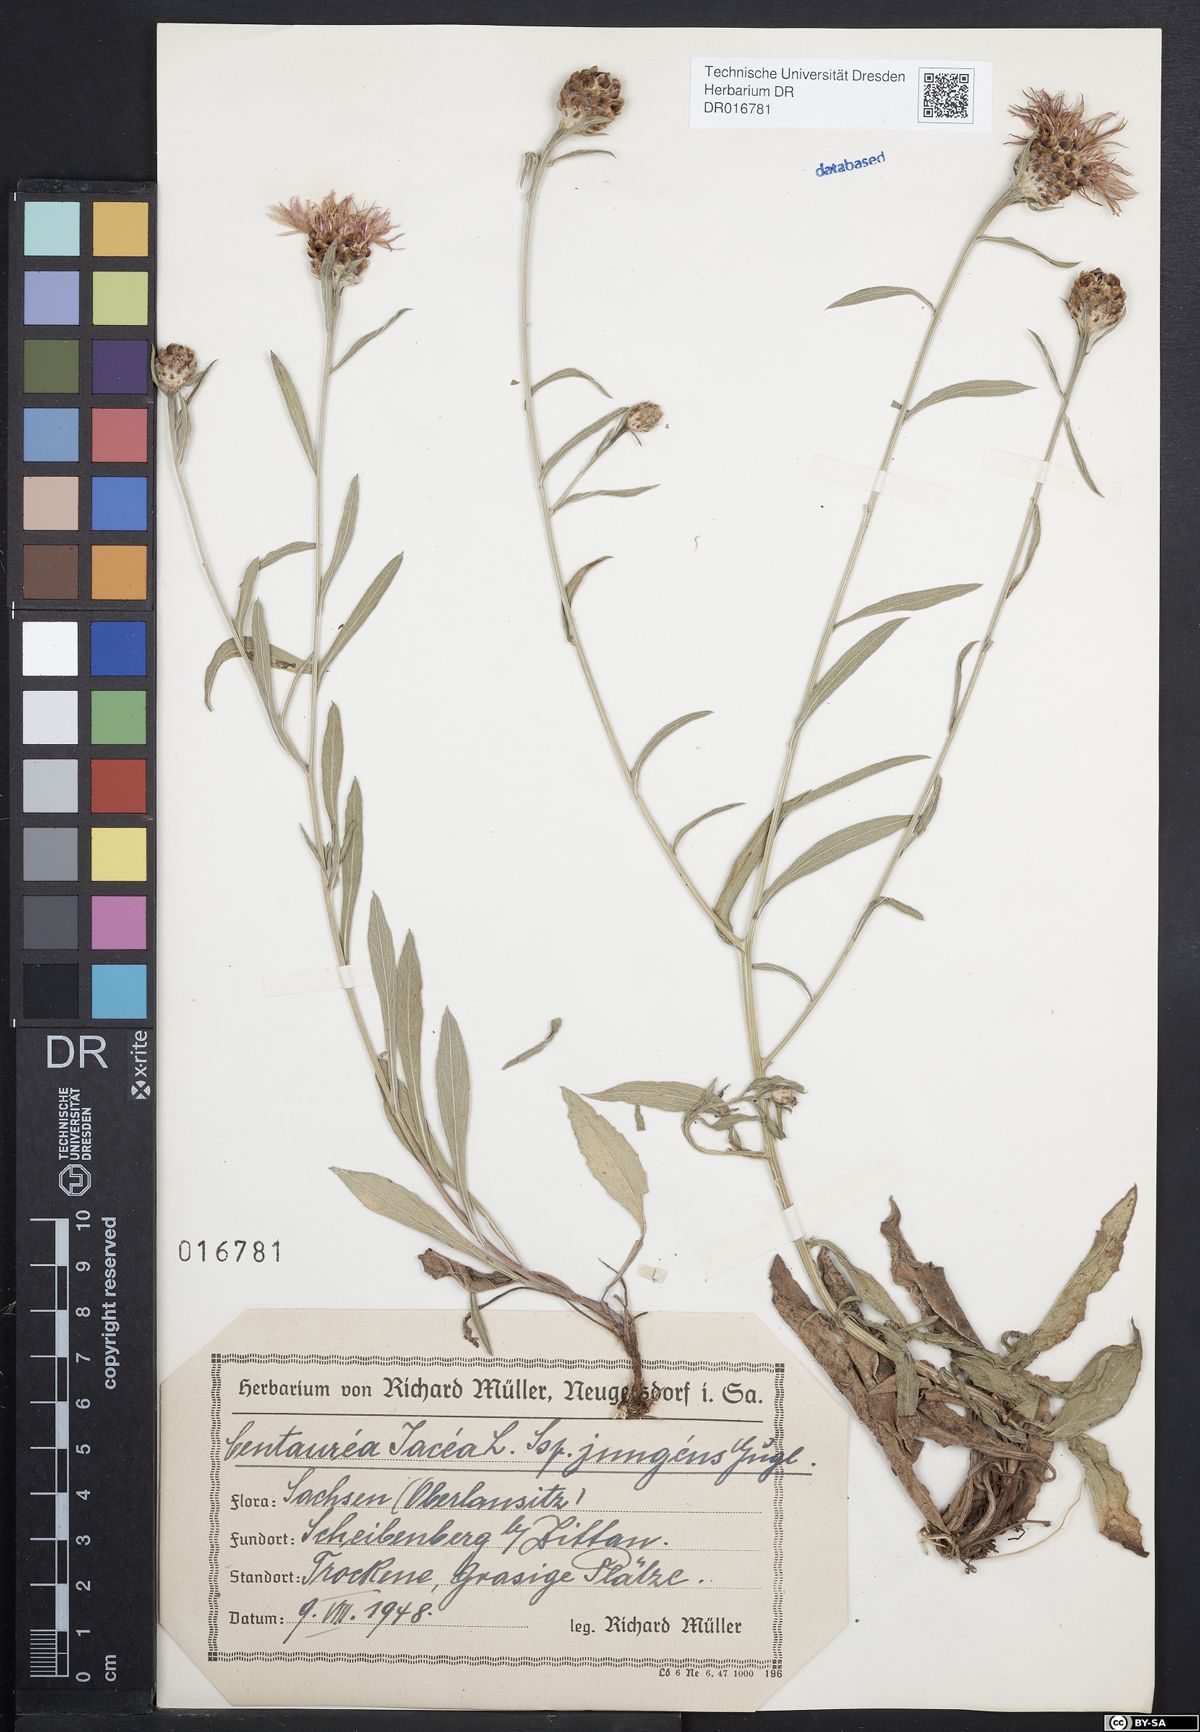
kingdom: Plantae
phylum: Tracheophyta
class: Magnoliopsida
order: Asterales
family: Asteraceae
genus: Centaurea
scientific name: Centaurea jacea
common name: Brown knapweed
